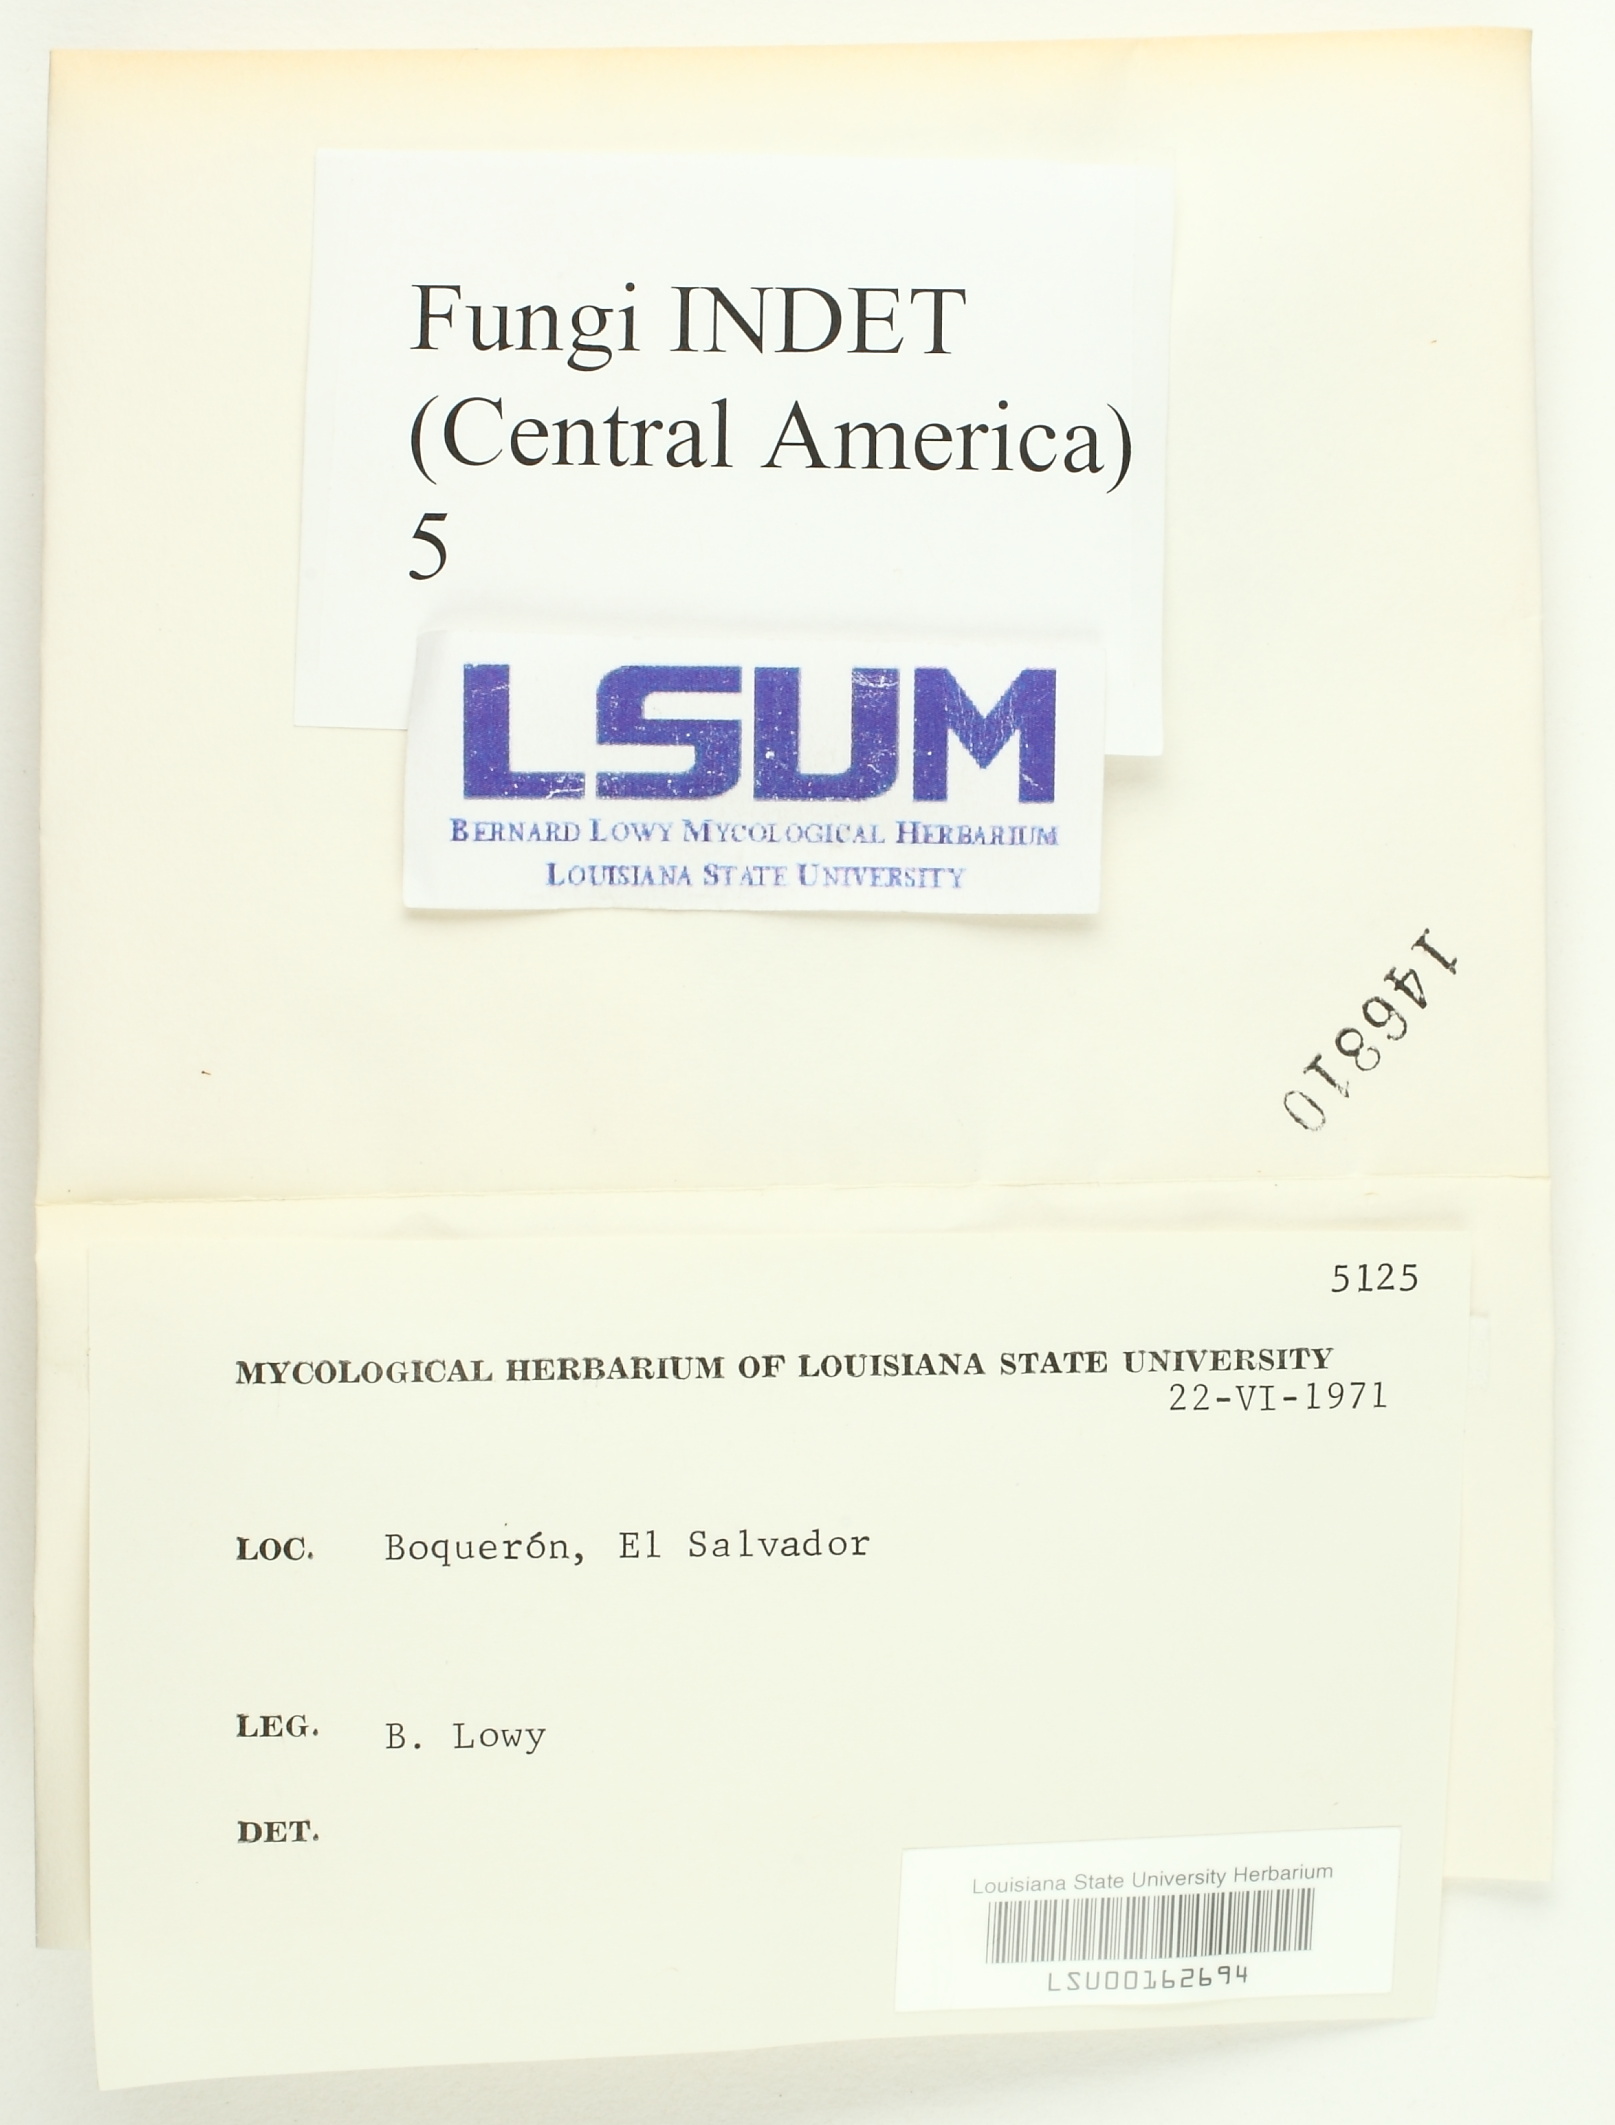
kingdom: Fungi
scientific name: Fungi
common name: Fungi
